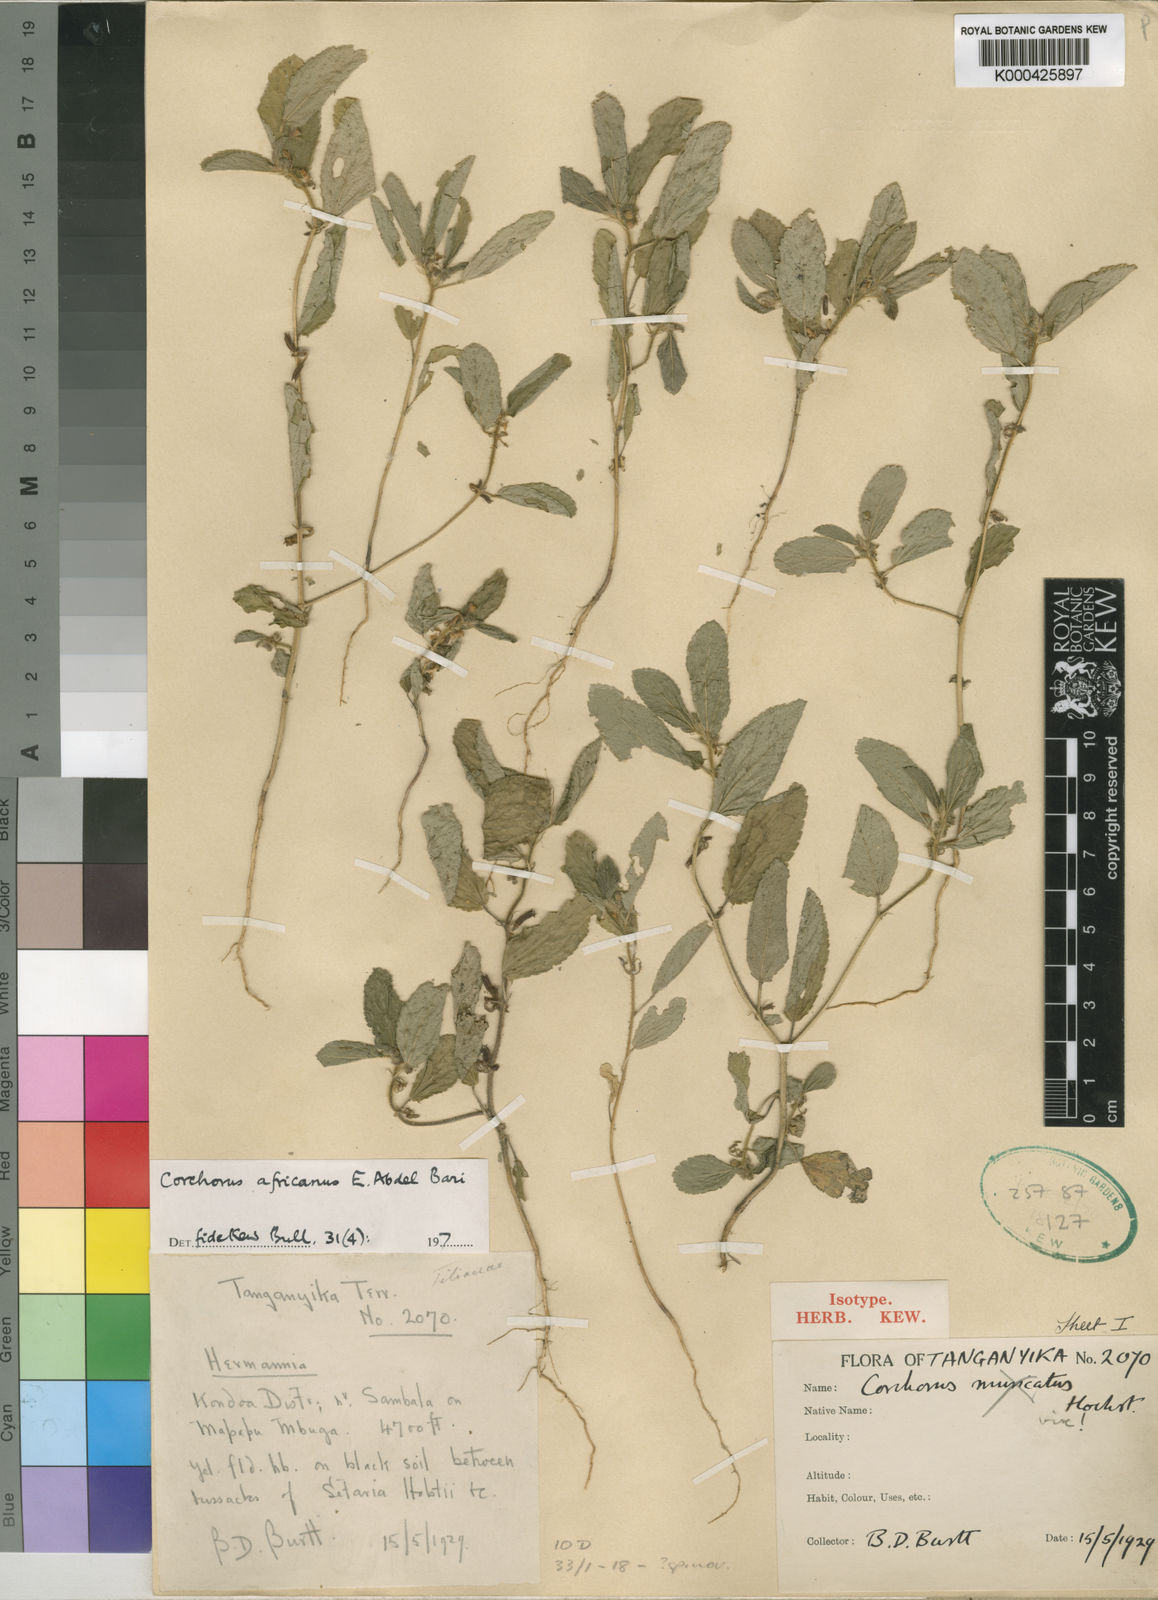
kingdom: Plantae
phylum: Tracheophyta
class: Magnoliopsida
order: Malvales
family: Malvaceae
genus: Corchorus
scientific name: Corchorus africanus
